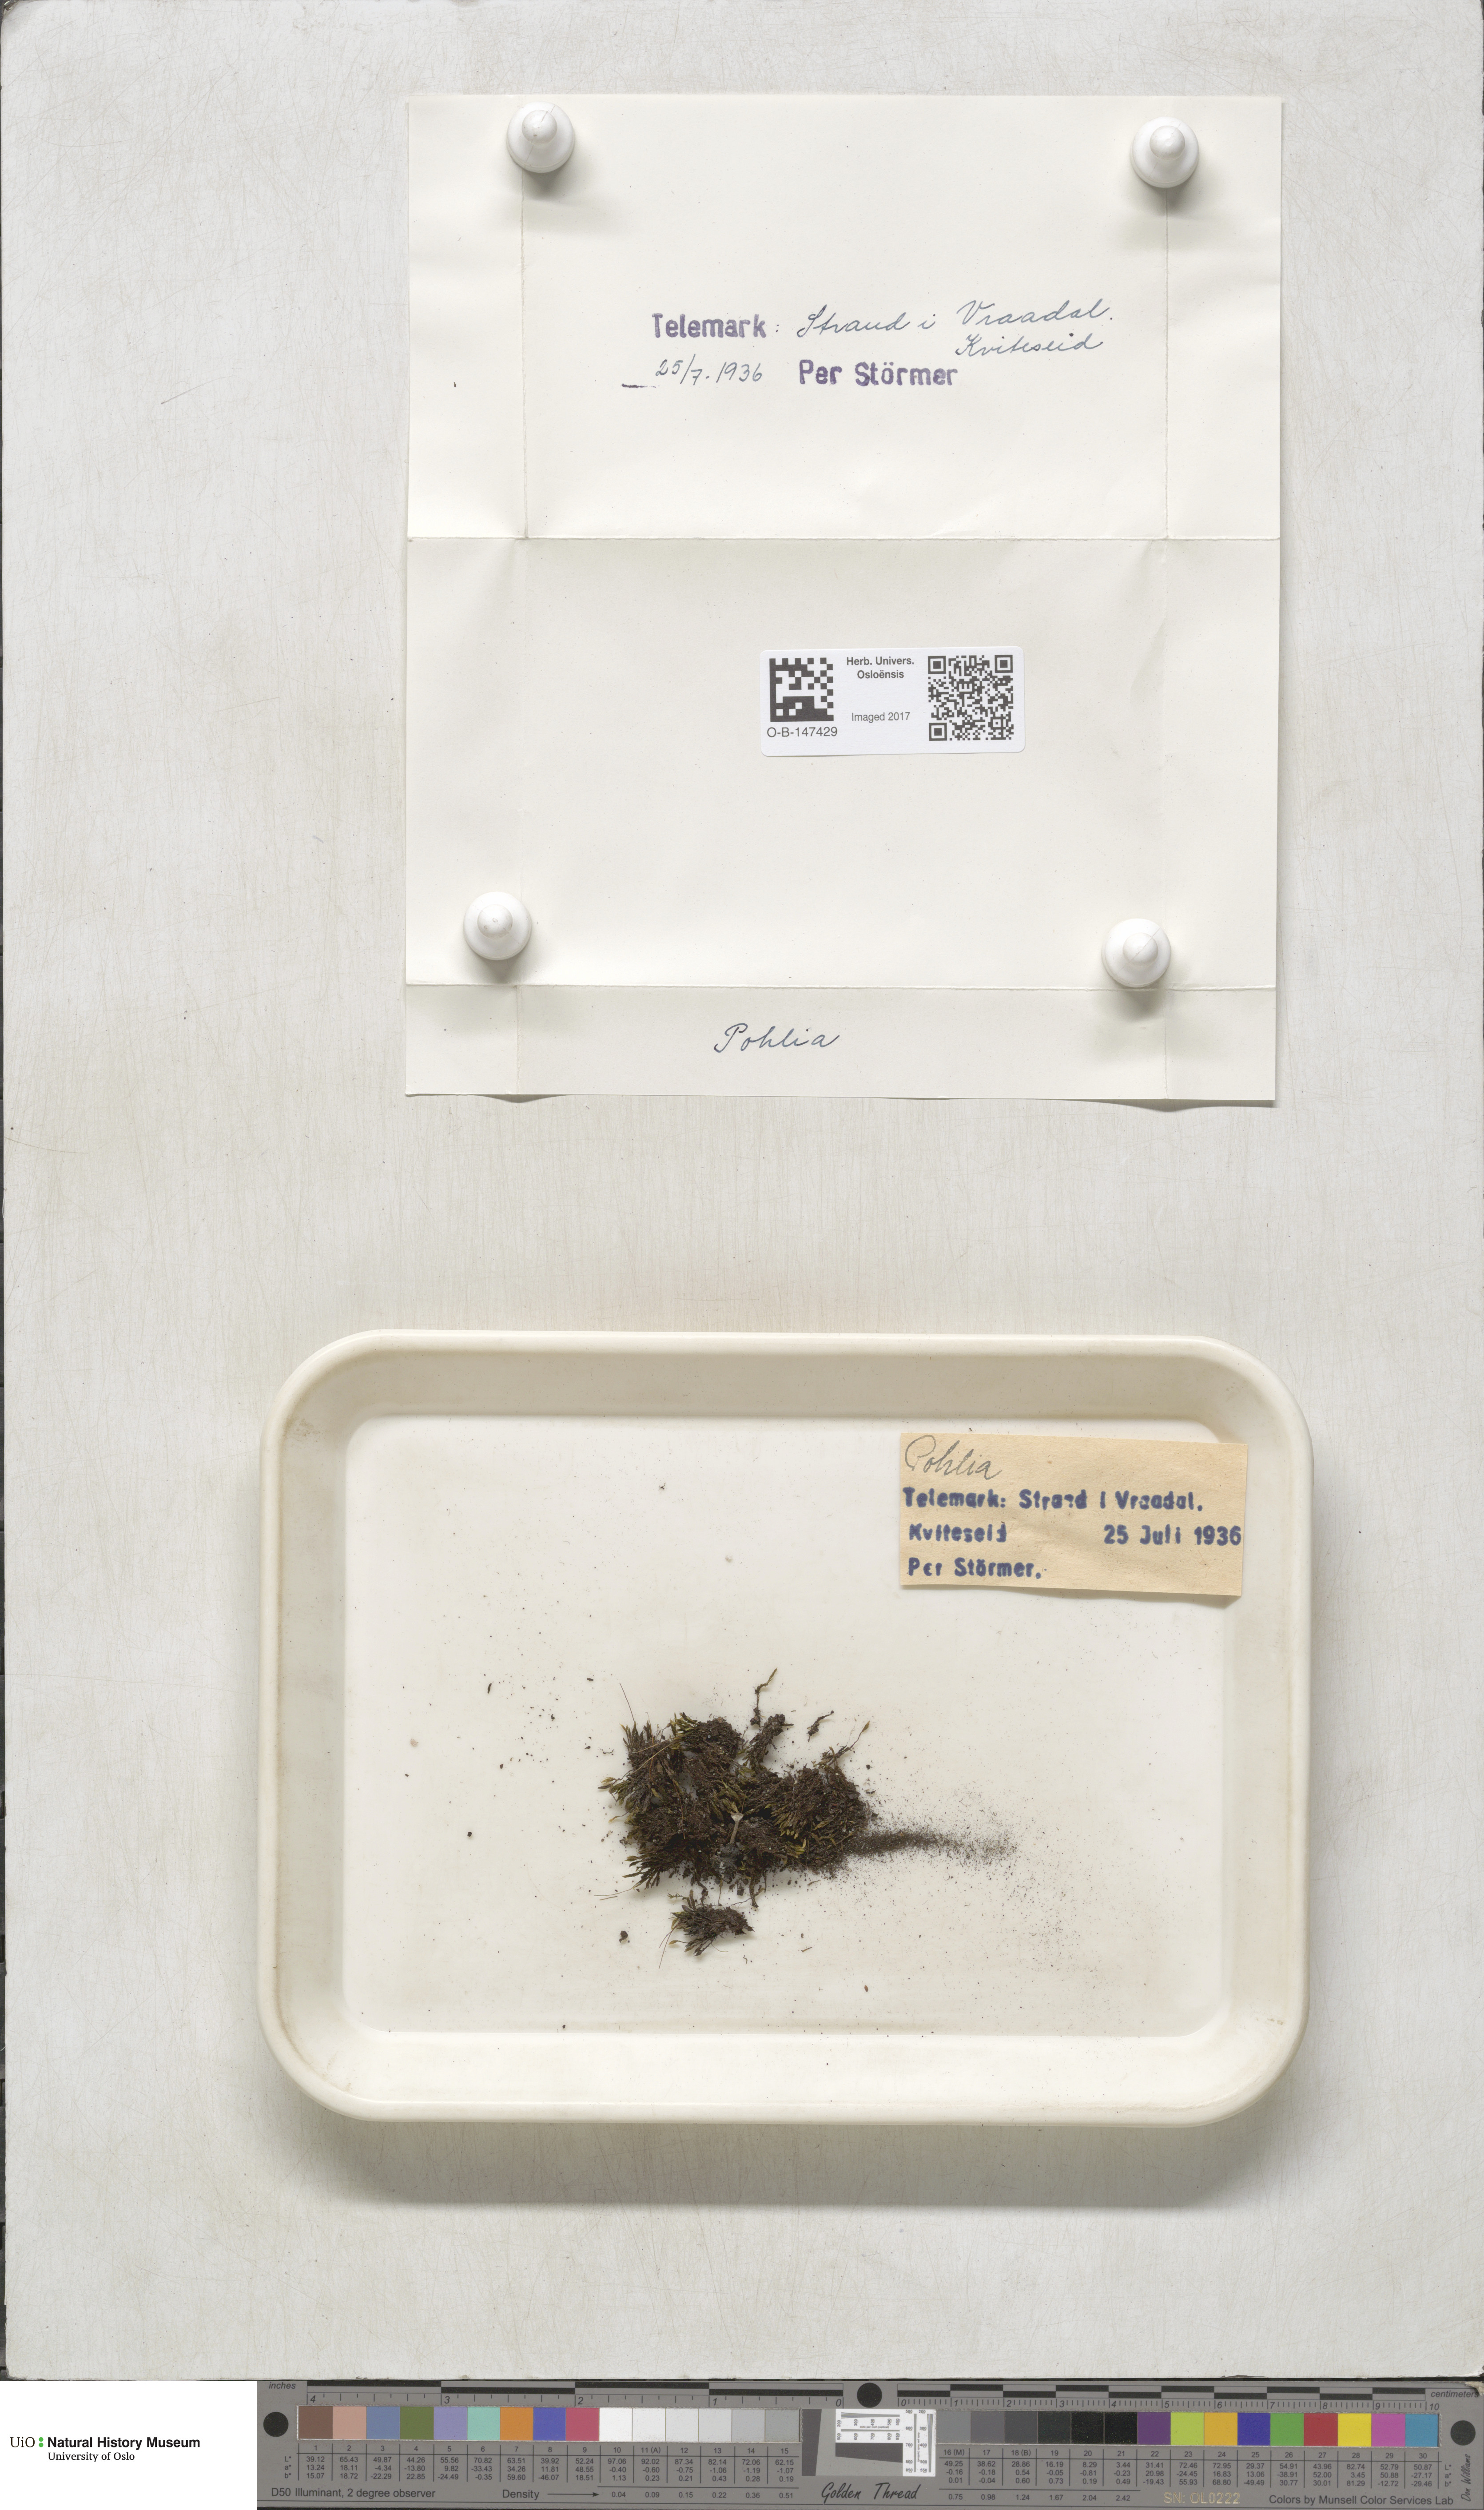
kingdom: Plantae
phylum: Bryophyta
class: Bryopsida
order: Bryales
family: Mniaceae
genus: Pohlia
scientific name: Pohlia
